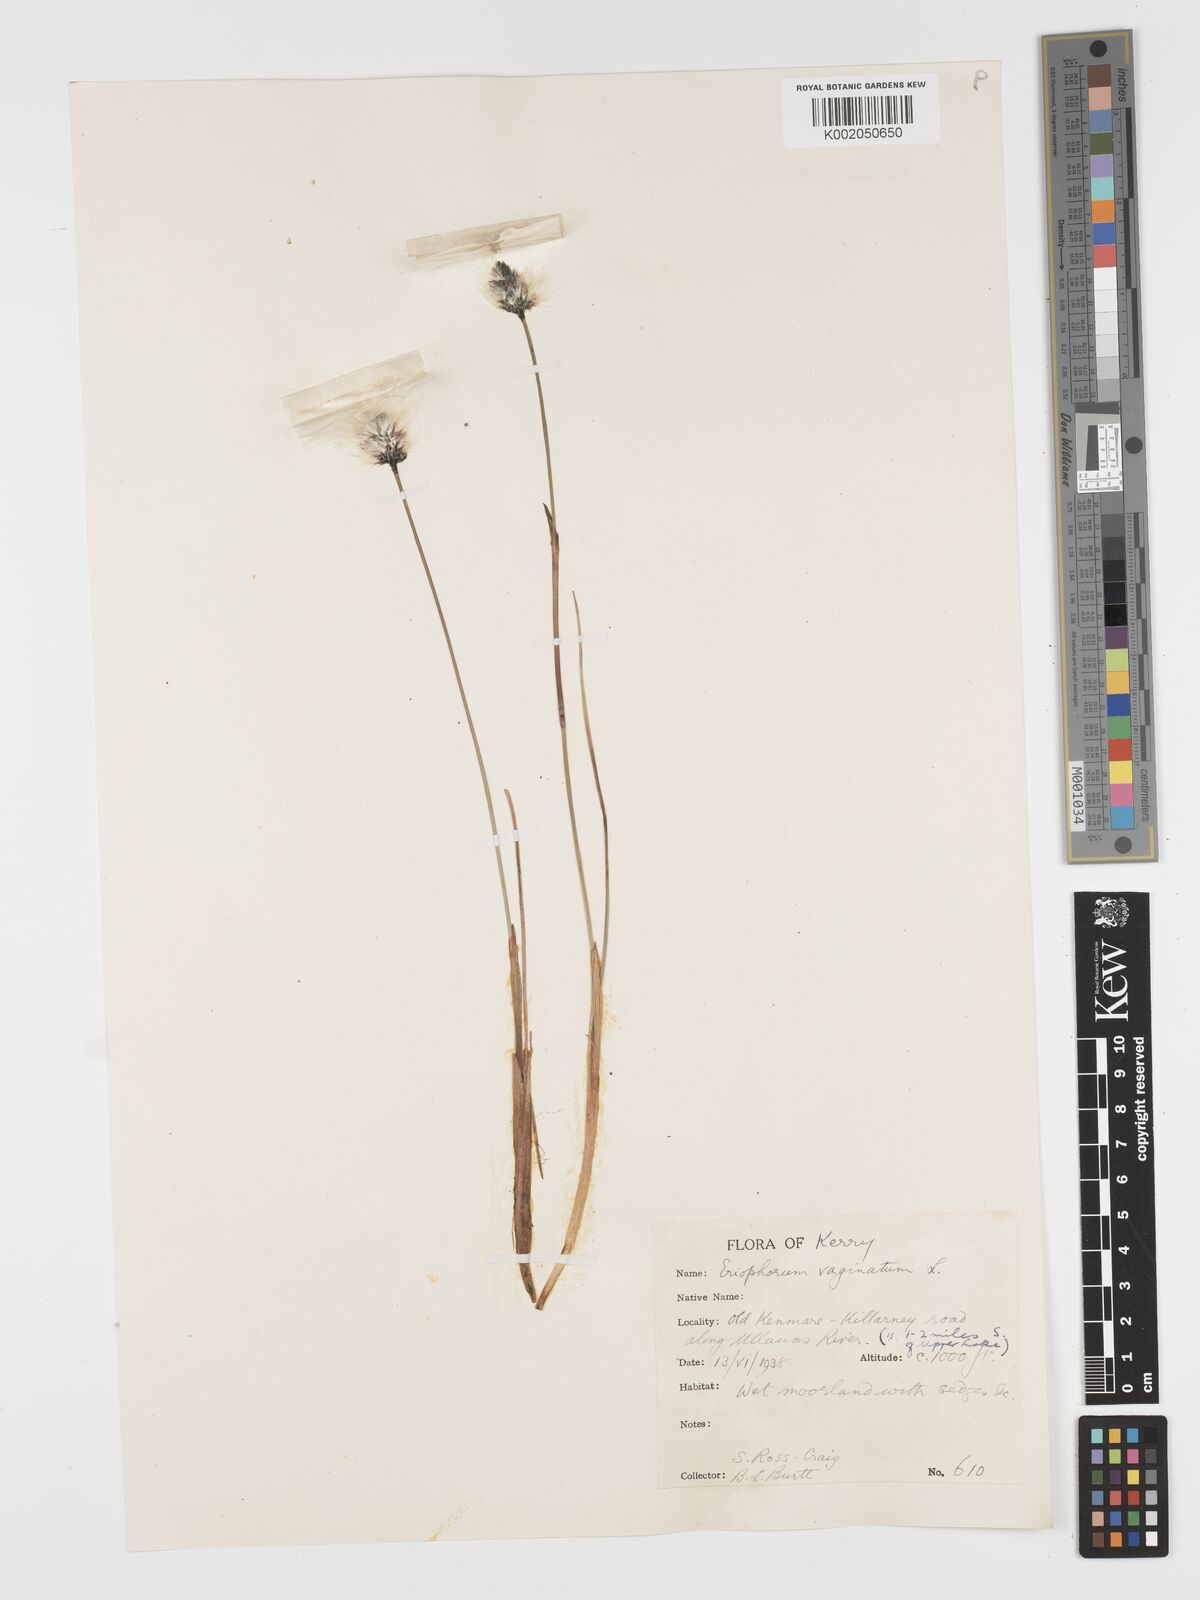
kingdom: Plantae
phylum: Tracheophyta
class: Liliopsida
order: Poales
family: Cyperaceae
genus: Eriophorum
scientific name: Eriophorum vaginatum
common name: Hare's-tail cottongrass
